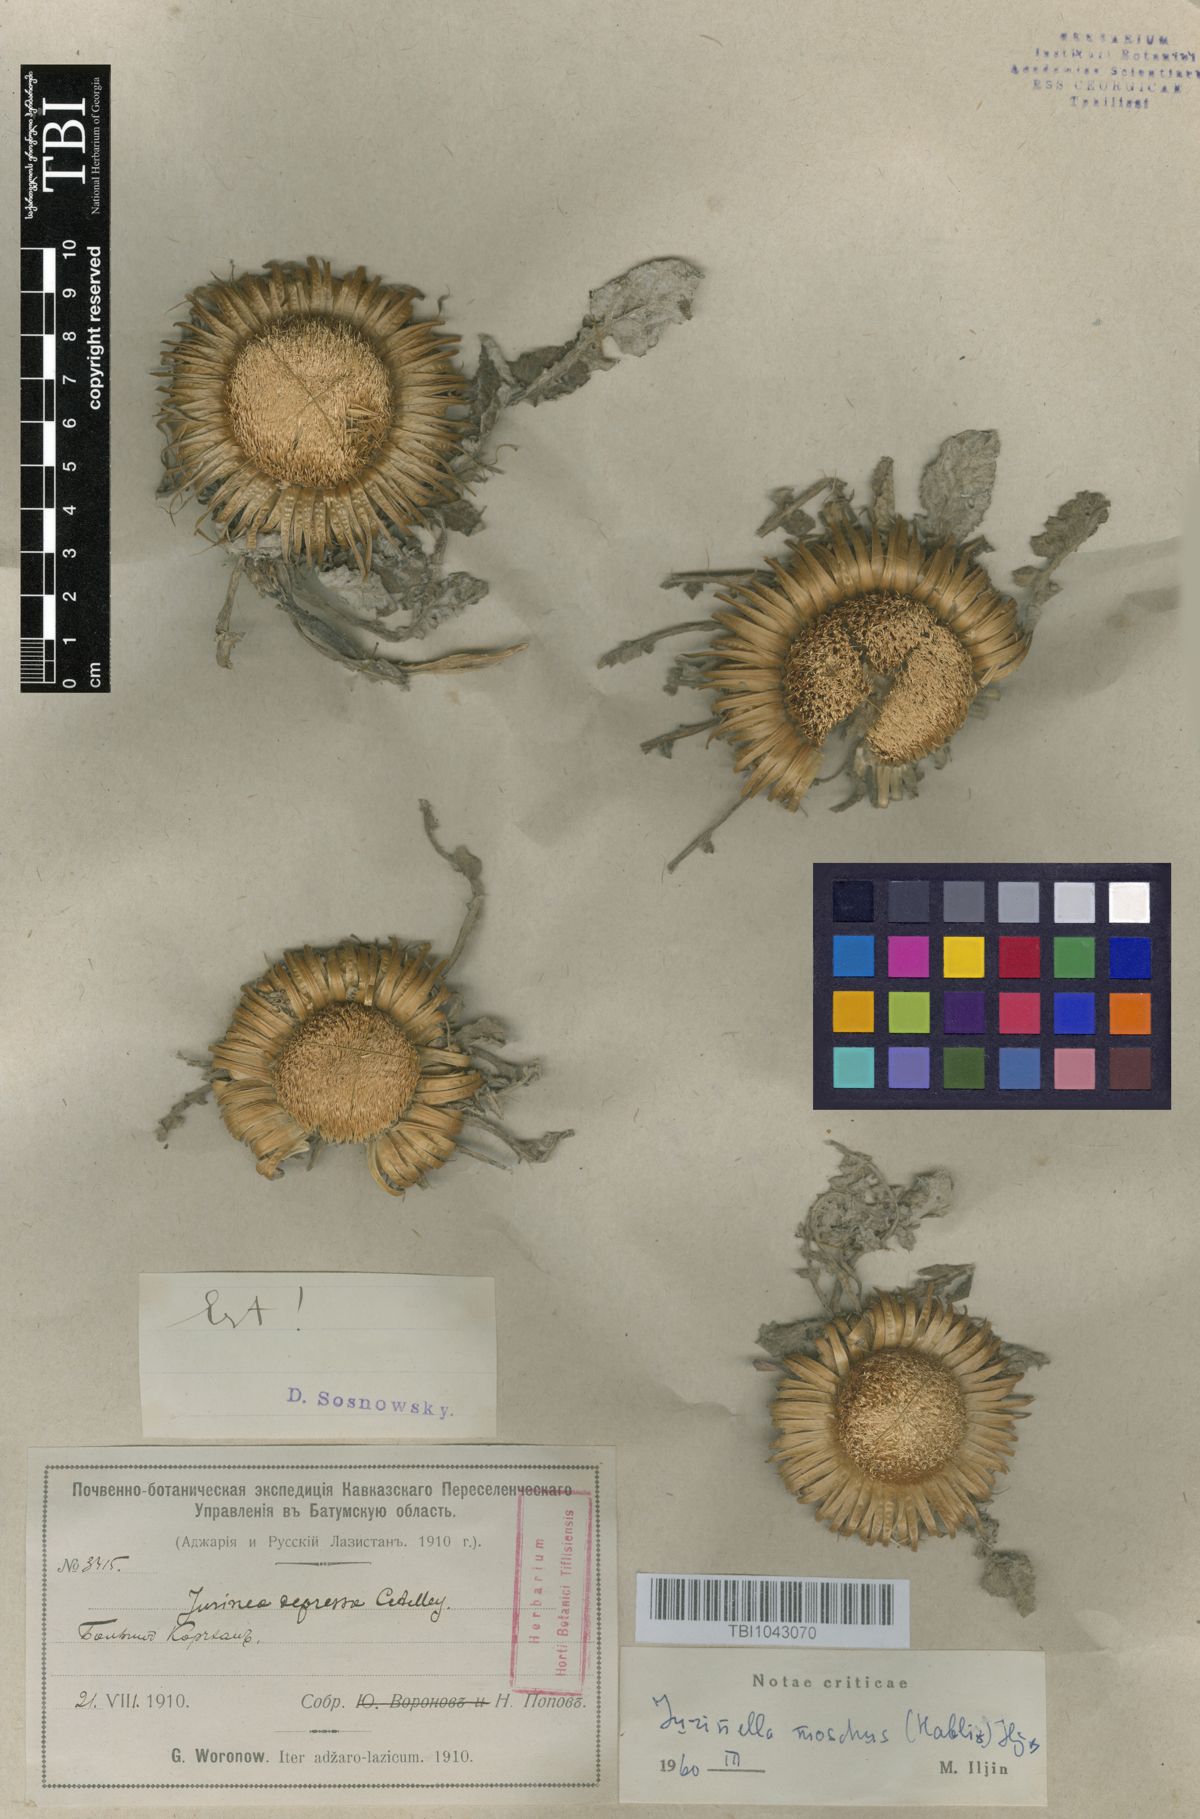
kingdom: Plantae
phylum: Tracheophyta
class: Magnoliopsida
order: Asterales
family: Asteraceae
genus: Jurinea
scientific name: Jurinea moschus
